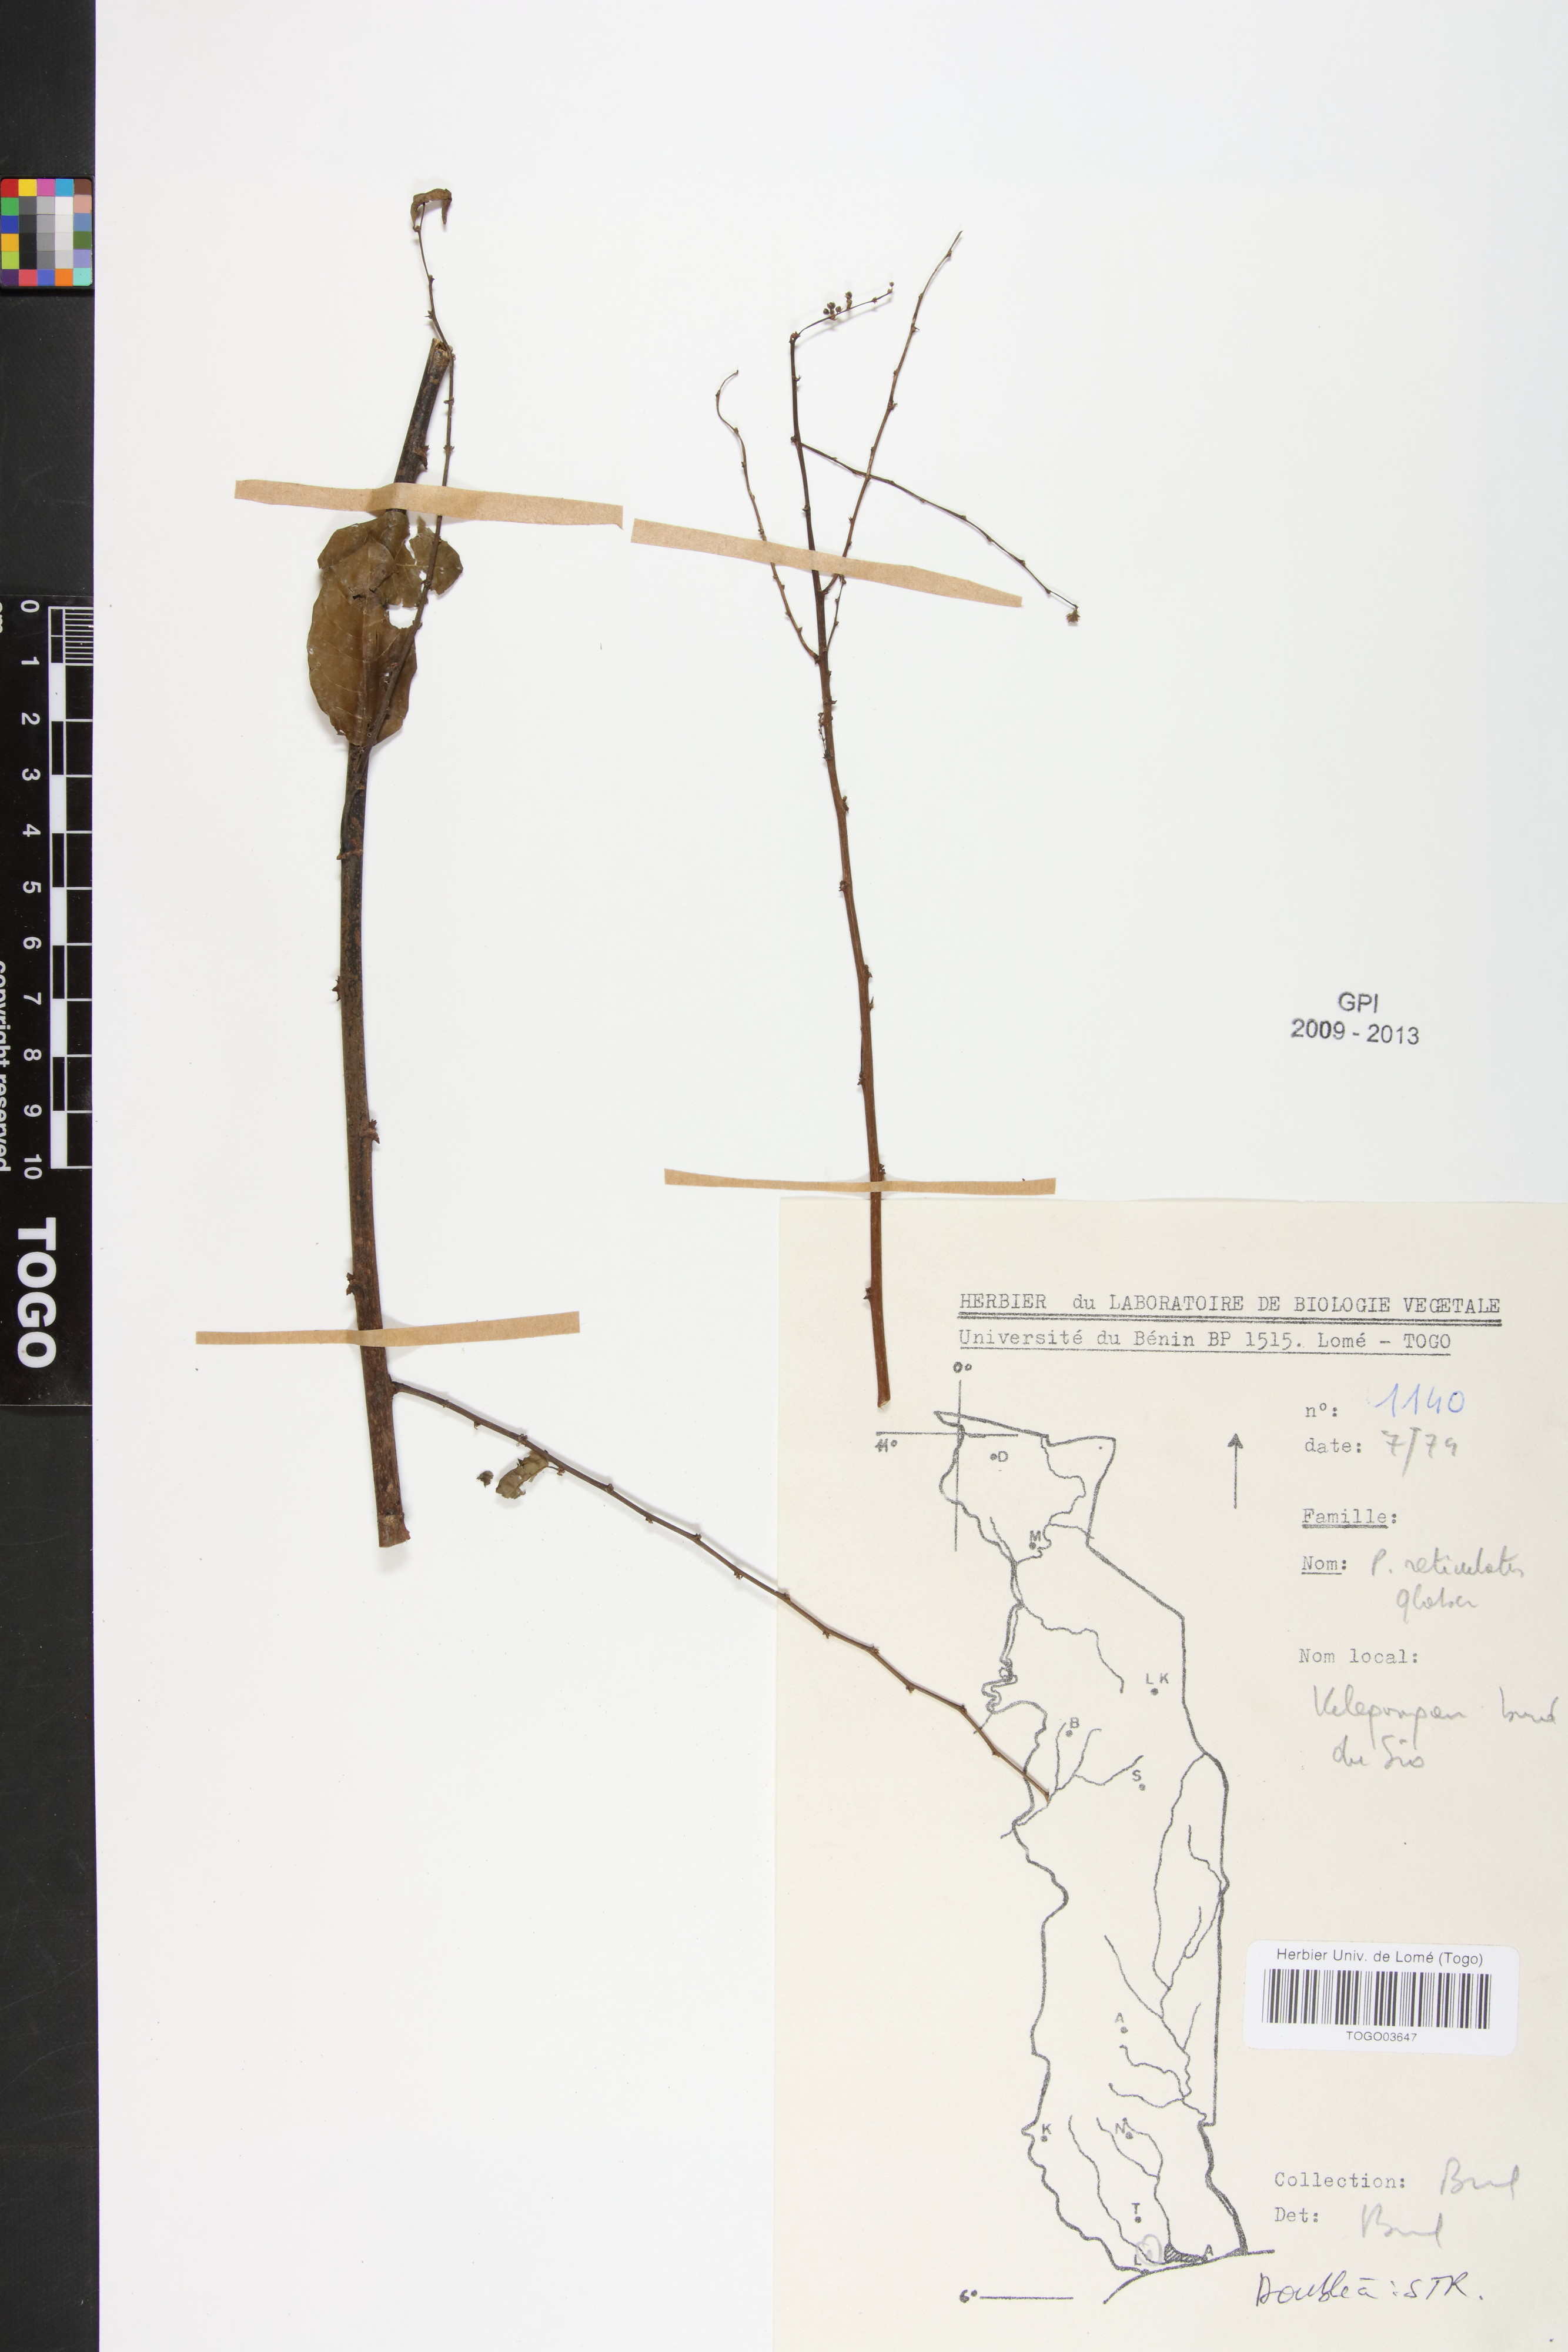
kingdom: Plantae
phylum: Tracheophyta
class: Magnoliopsida
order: Malpighiales
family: Phyllanthaceae
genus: Phyllanthus
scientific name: Phyllanthus reticulatus
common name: Potato bush
